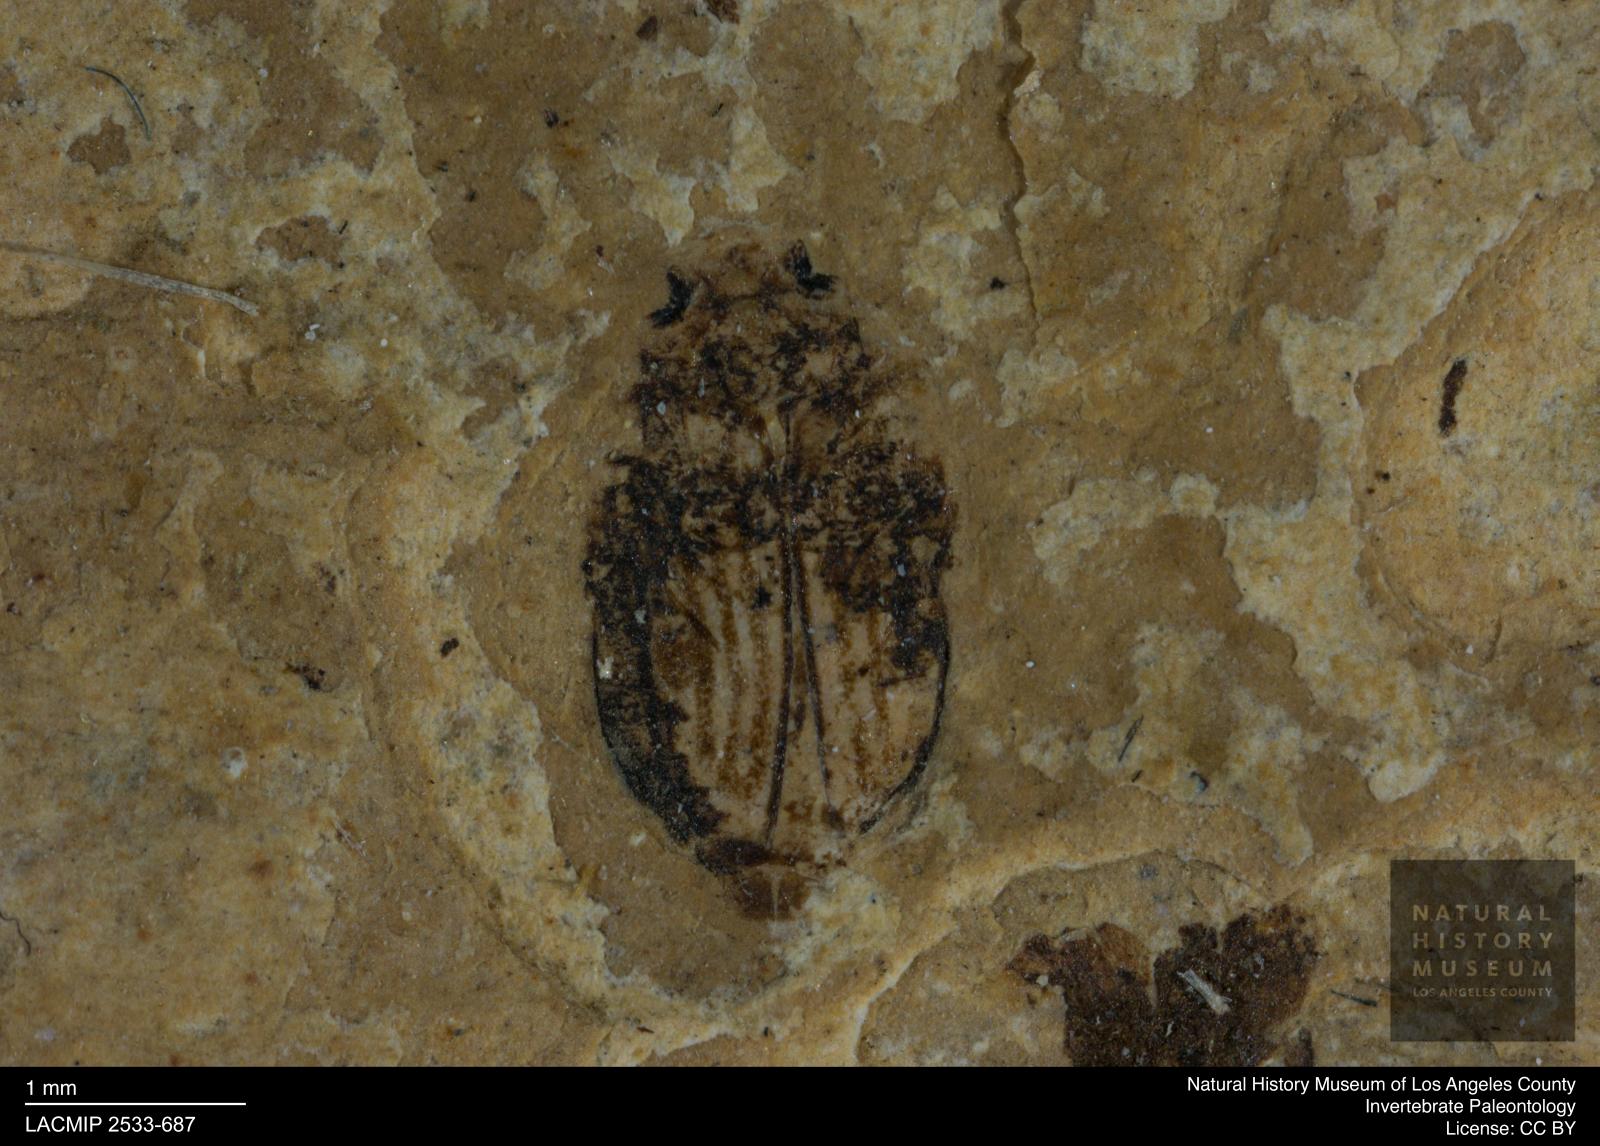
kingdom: Animalia
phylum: Arthropoda
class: Insecta
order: Coleoptera
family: Dytiscidae
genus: Oreodytes
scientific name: Oreodytes cryptolineatus
